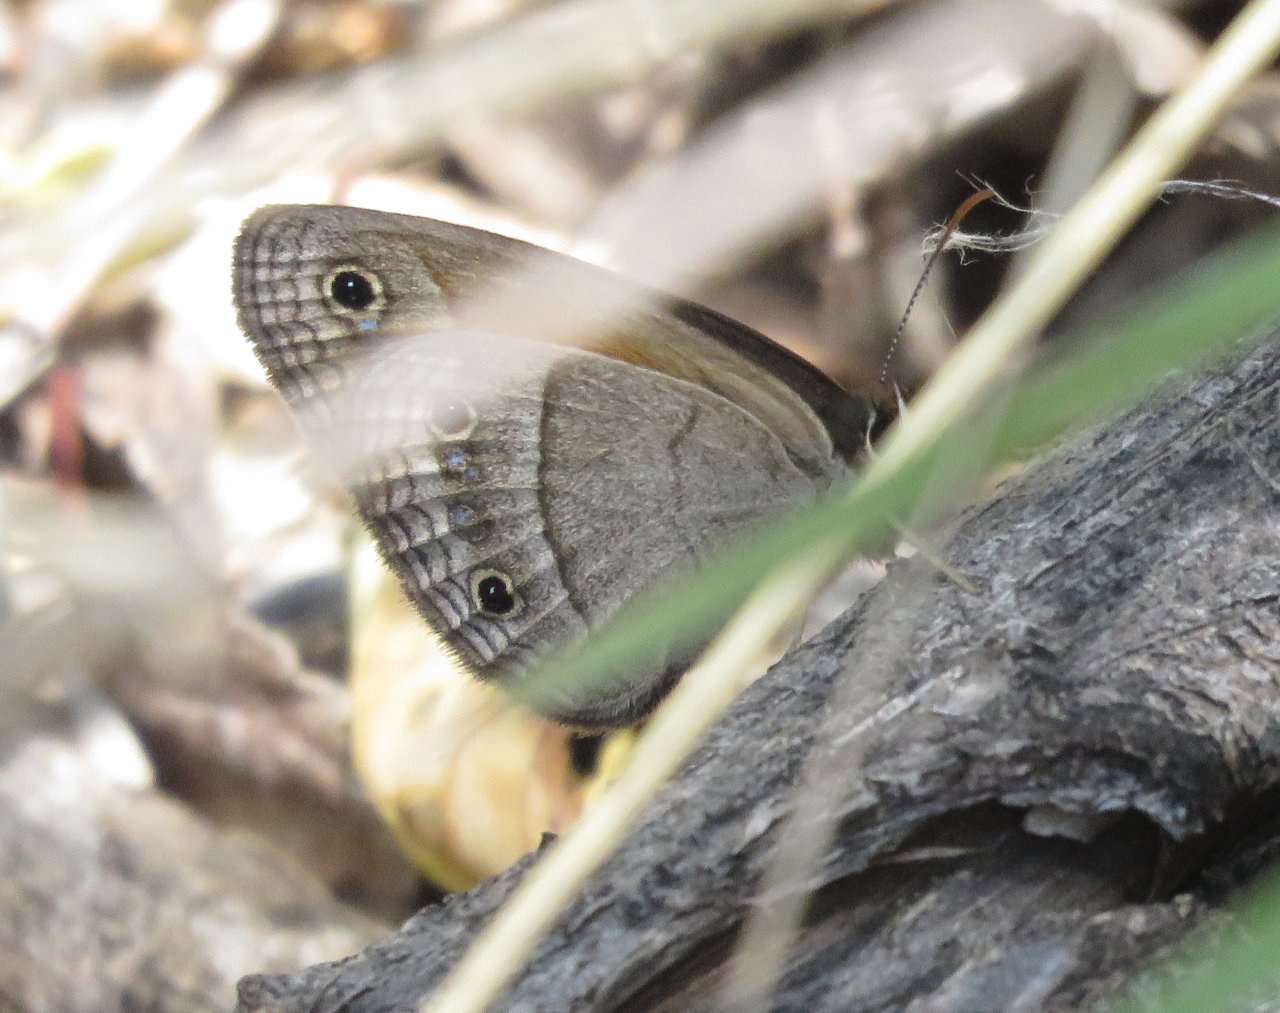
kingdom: Animalia
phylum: Arthropoda
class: Insecta
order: Lepidoptera
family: Nymphalidae
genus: Euptychia
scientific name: Euptychia rubricata
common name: Red Satyr
